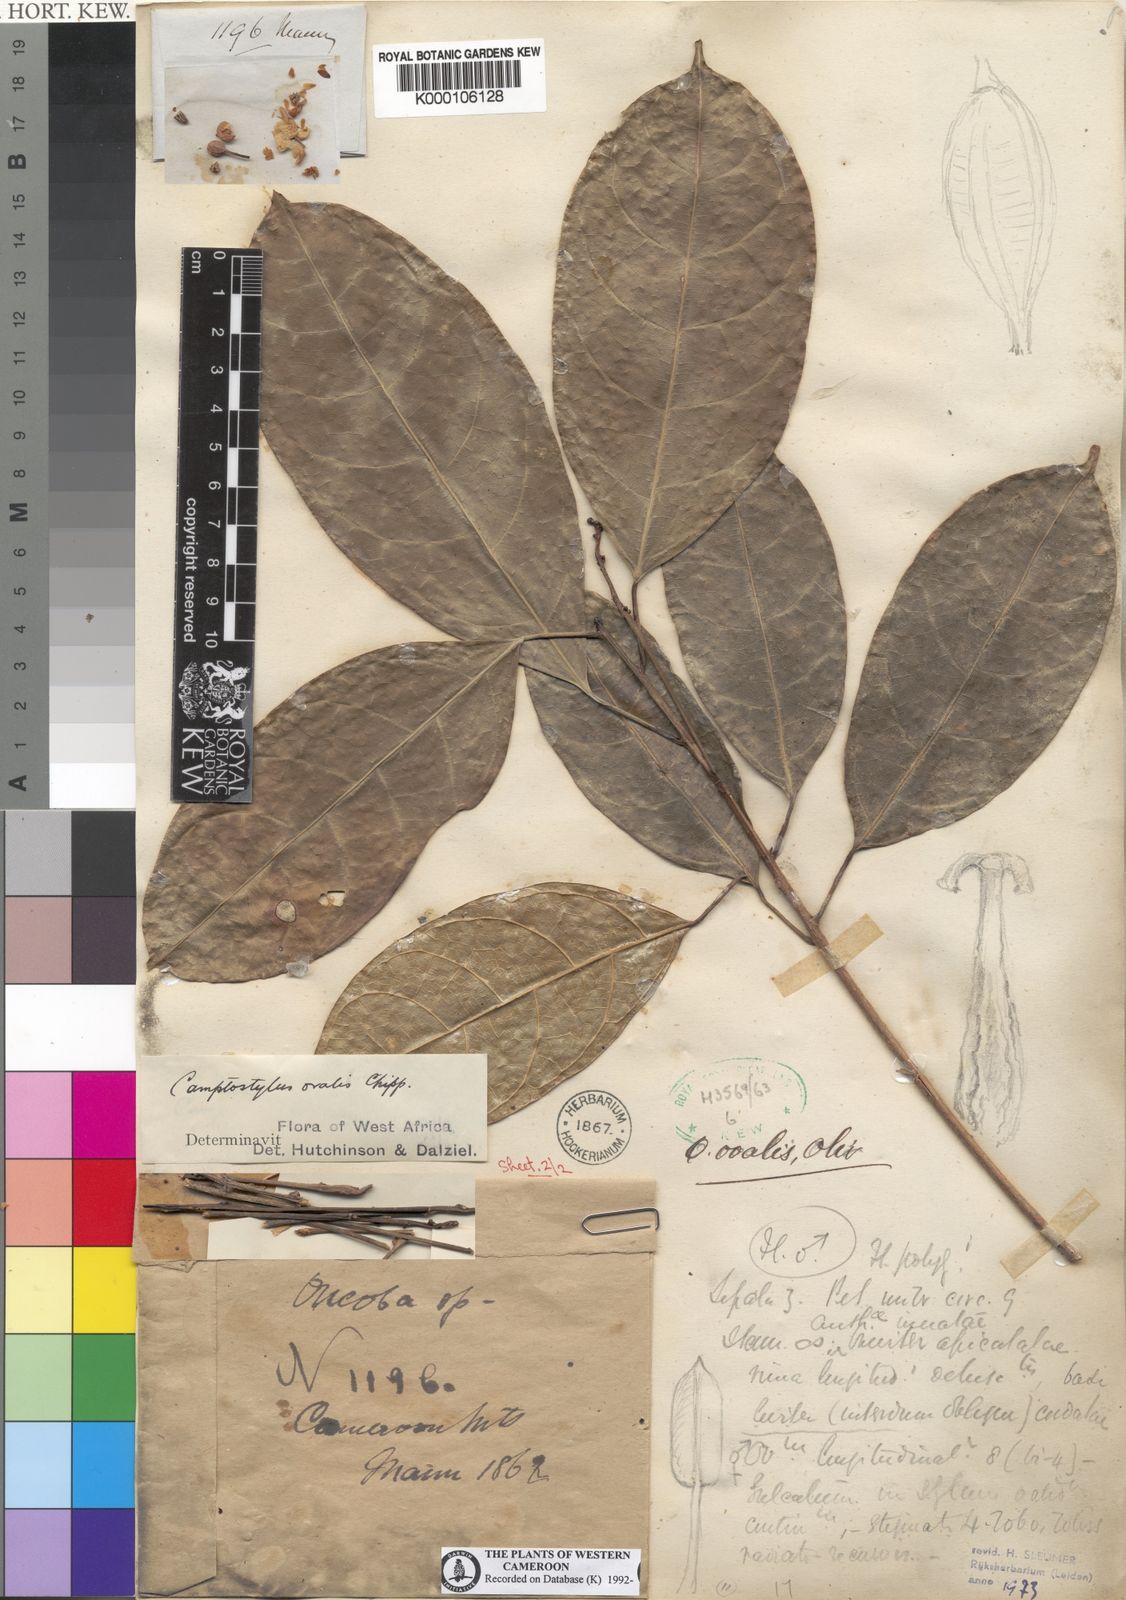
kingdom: Plantae
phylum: Tracheophyta
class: Magnoliopsida
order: Malpighiales
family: Achariaceae
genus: Camptostylus
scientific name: Camptostylus ovalis
